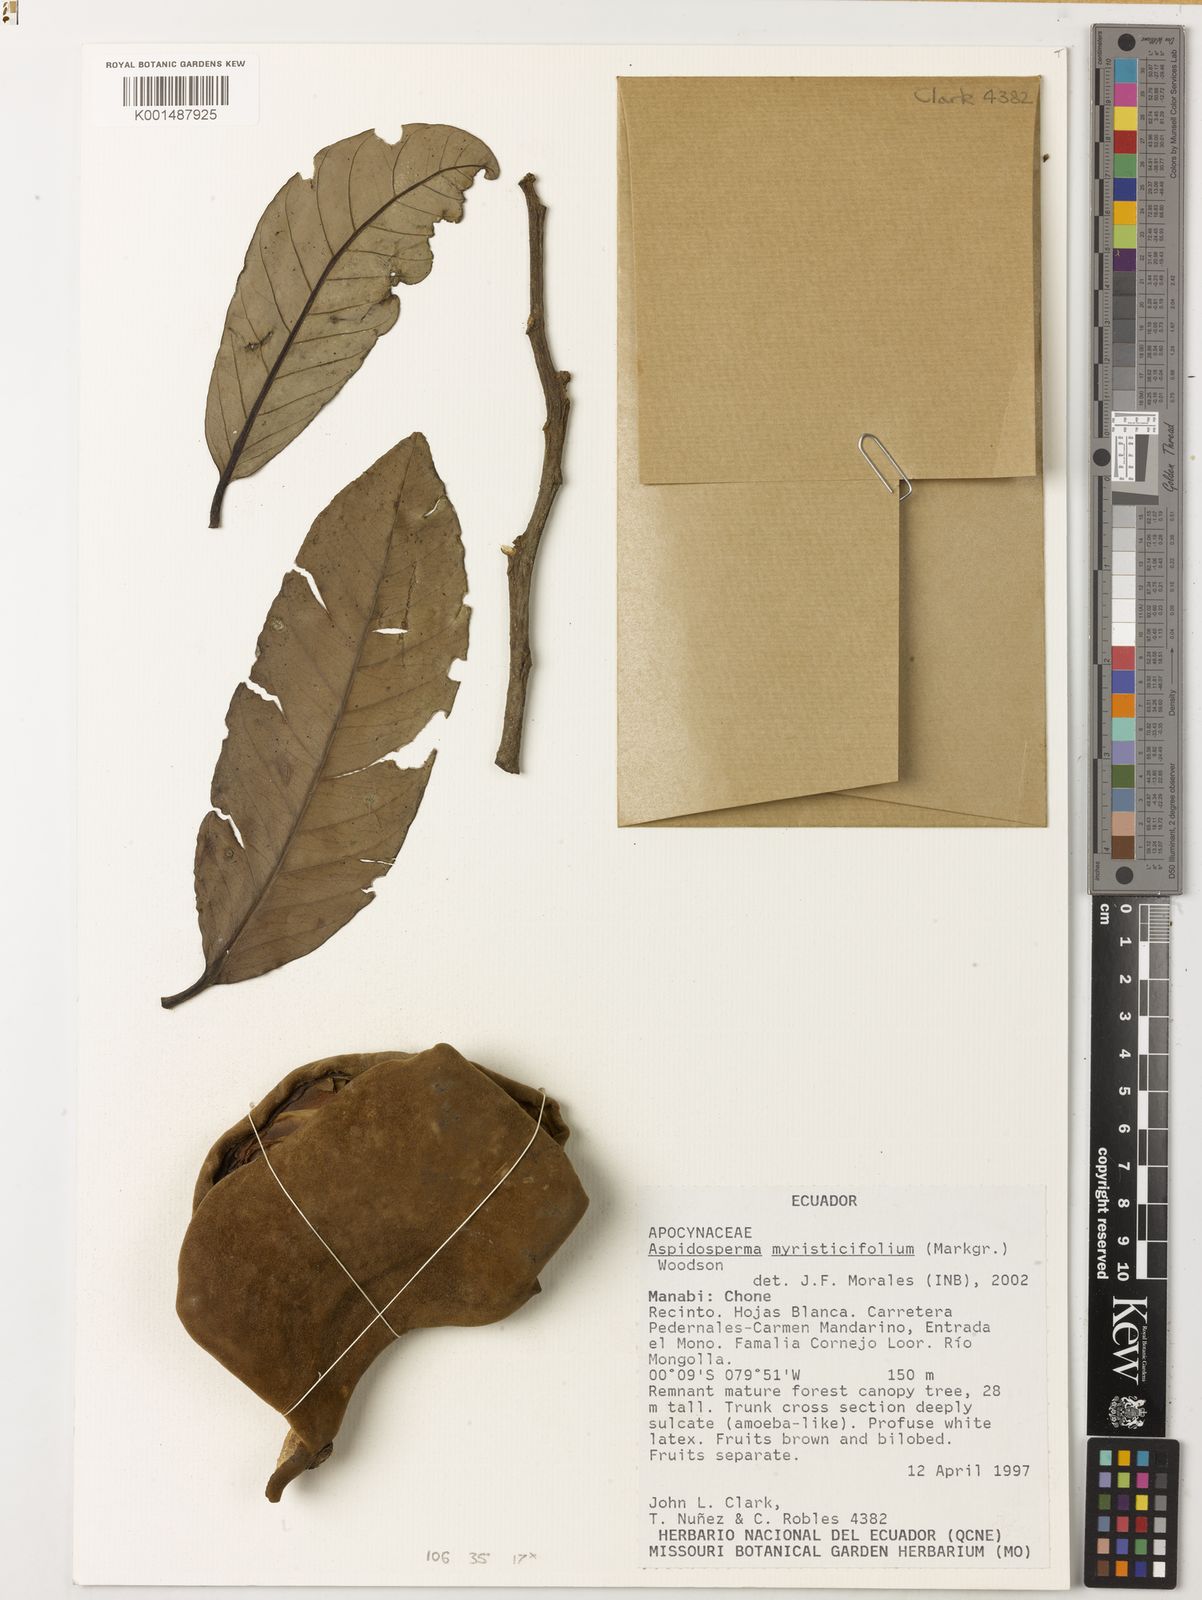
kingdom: Plantae
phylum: Tracheophyta
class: Magnoliopsida
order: Gentianales
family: Apocynaceae
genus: Aspidosperma
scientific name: Aspidosperma myristicifolium
